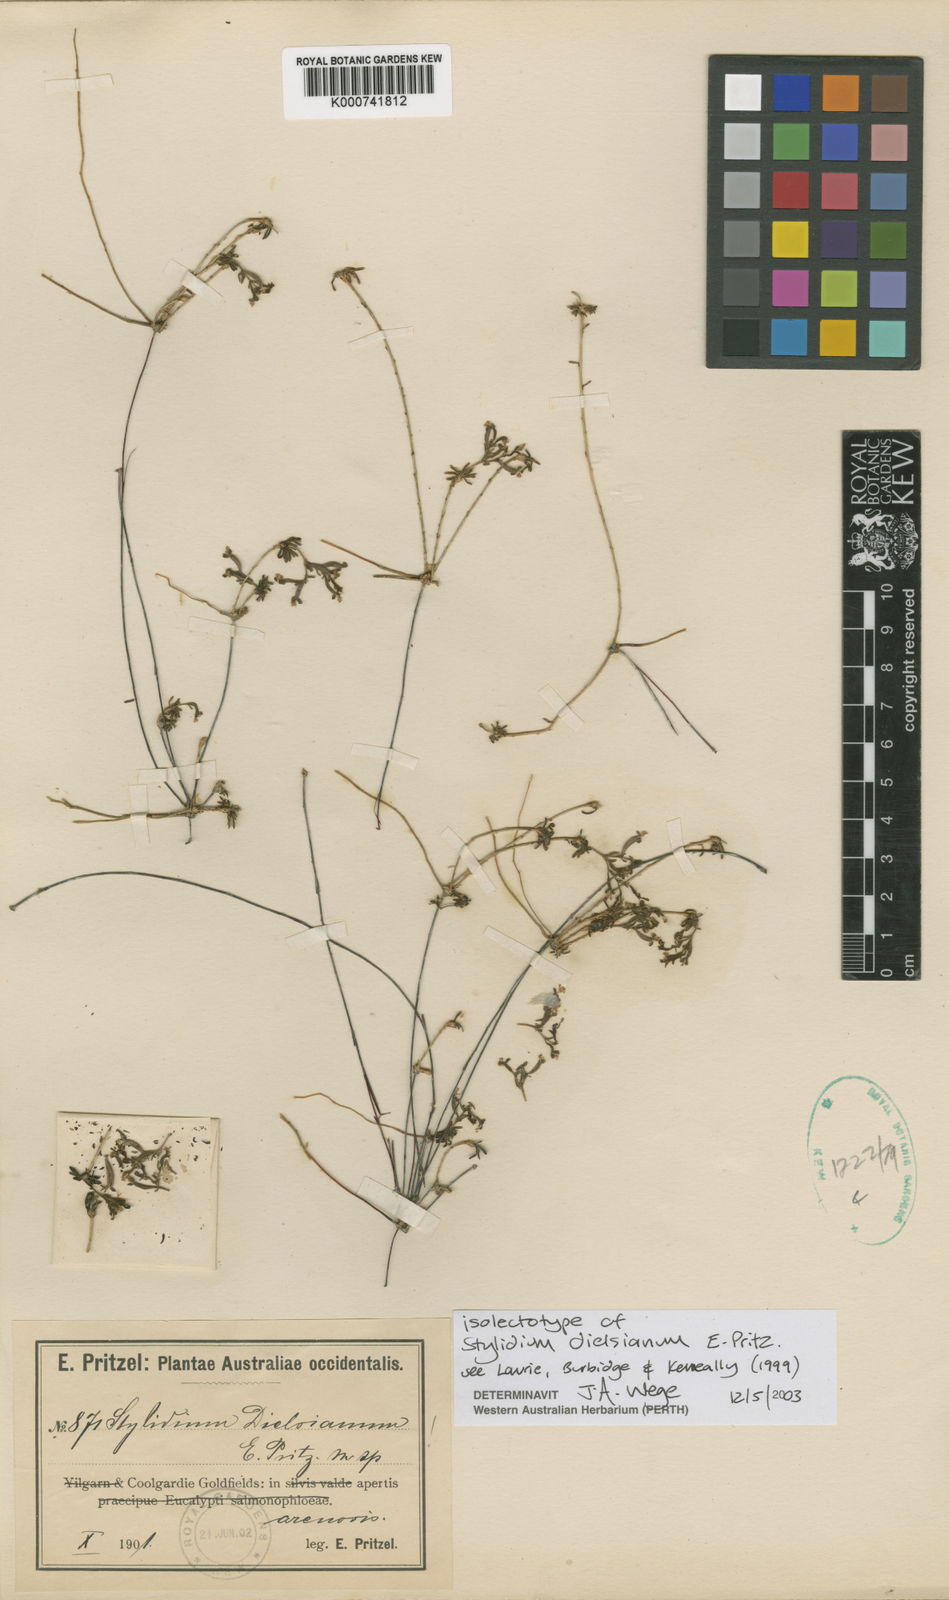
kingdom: Plantae
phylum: Tracheophyta
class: Magnoliopsida
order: Asterales
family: Stylidiaceae
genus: Stylidium
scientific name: Stylidium dielsianum
